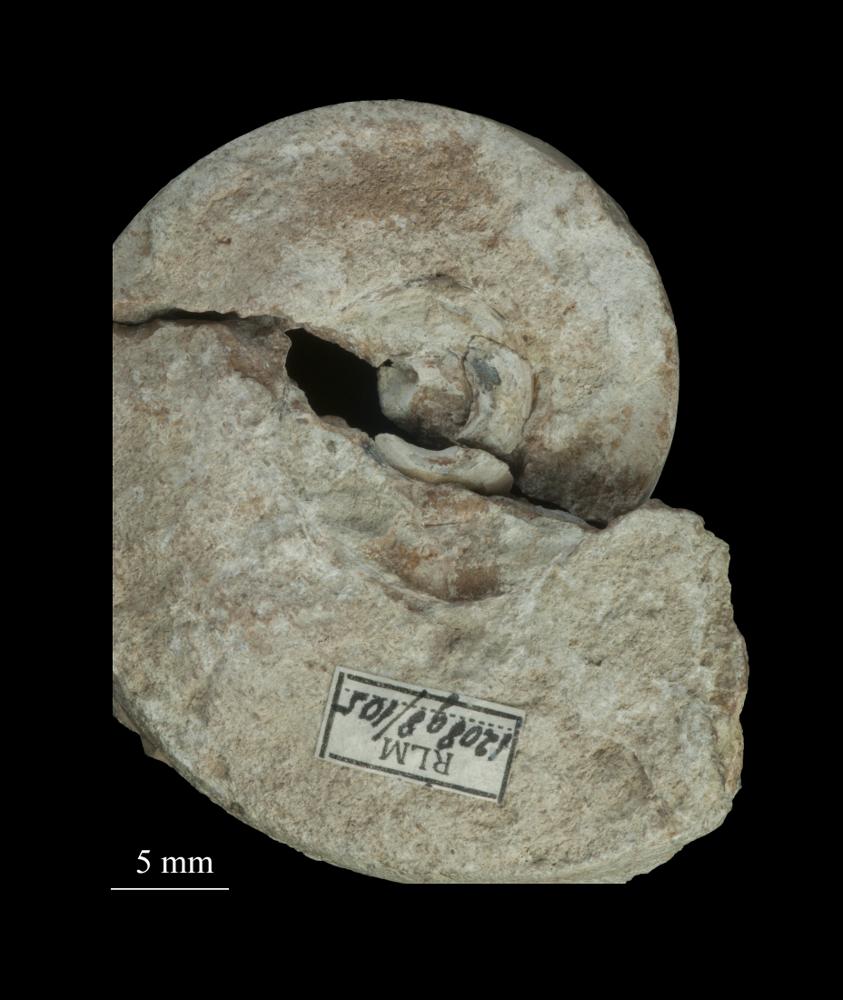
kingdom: Animalia
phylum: Mollusca
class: Gastropoda
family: Lesueurillidae
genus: Lesueurilla
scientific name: Lesueurilla Maclurea dilatata
